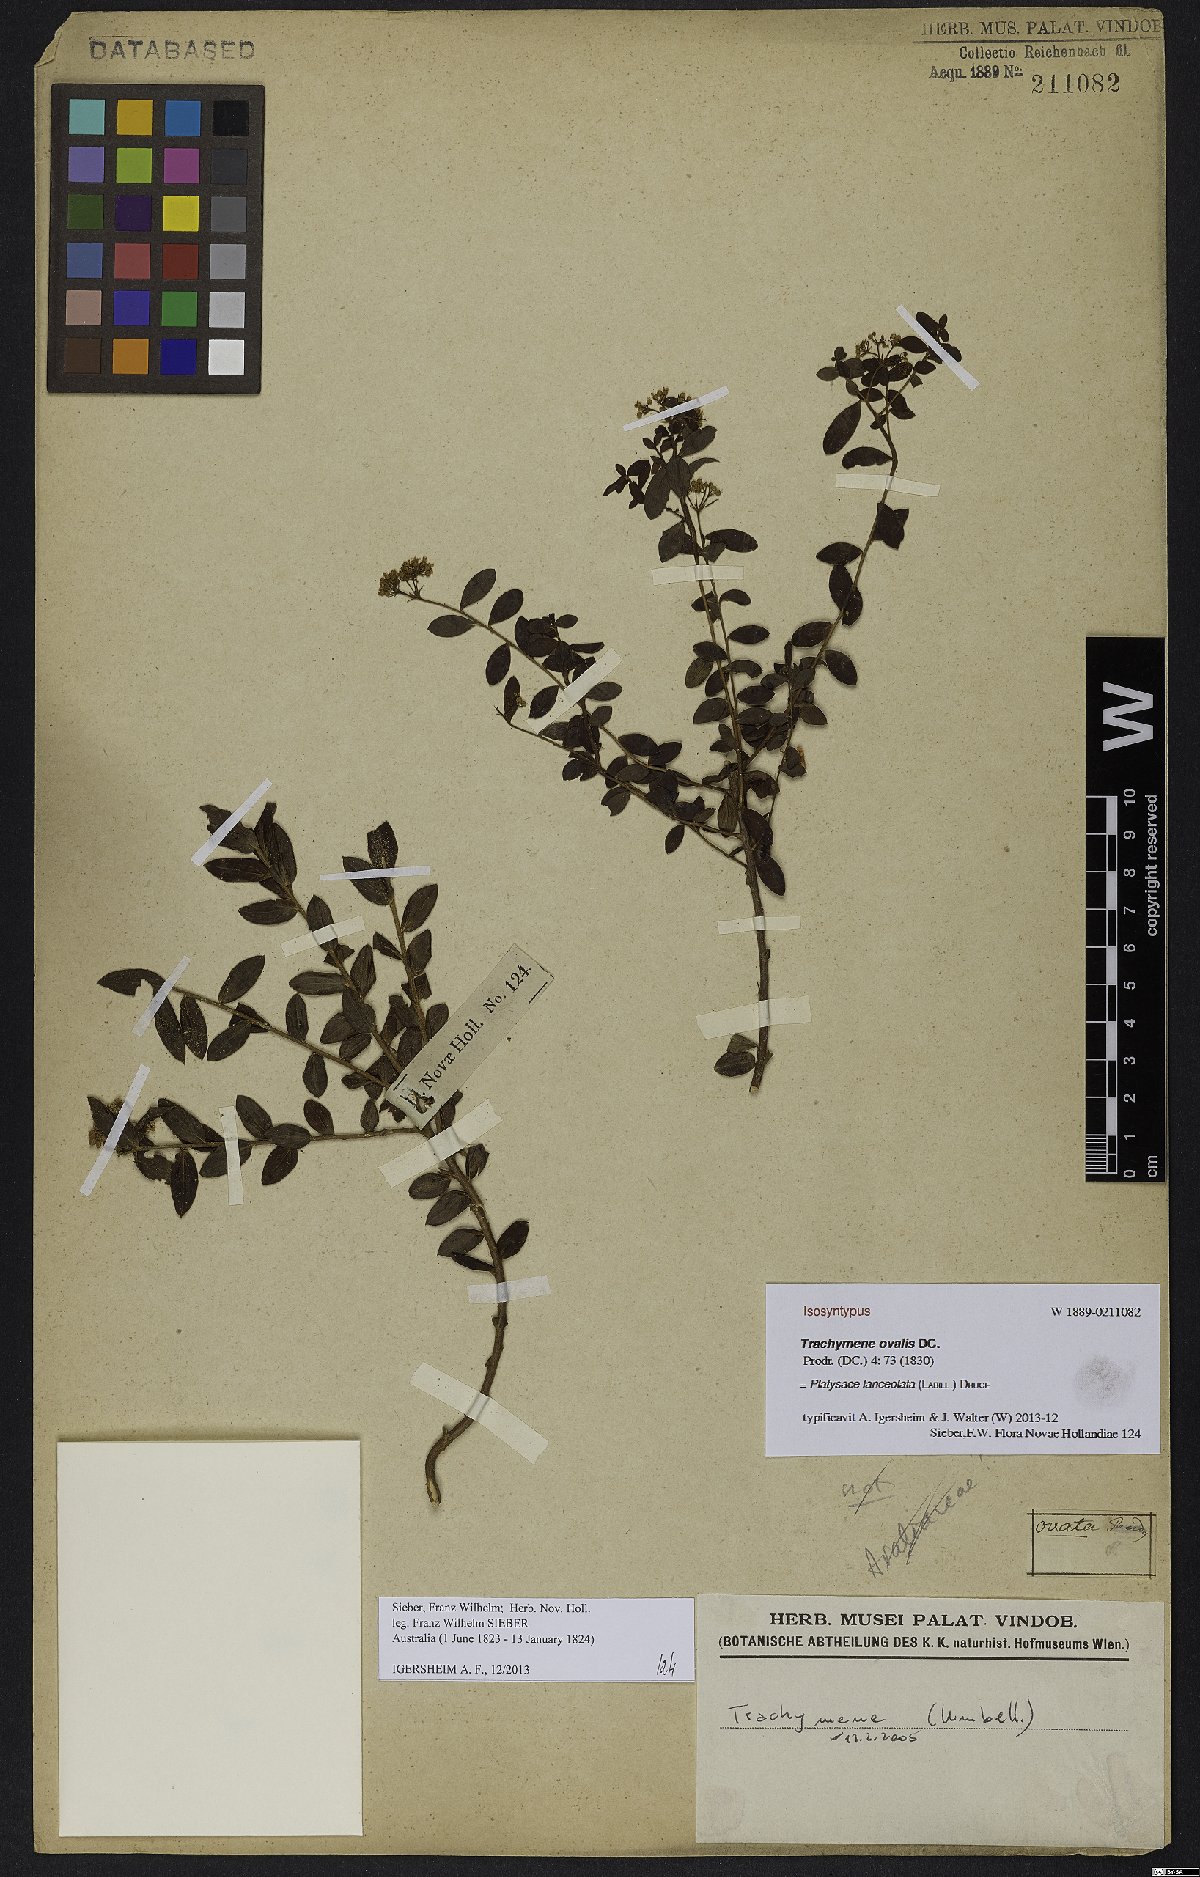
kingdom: Plantae
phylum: Tracheophyta
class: Magnoliopsida
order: Apiales
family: Apiaceae
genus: Platysace
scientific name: Platysace lanceolata
